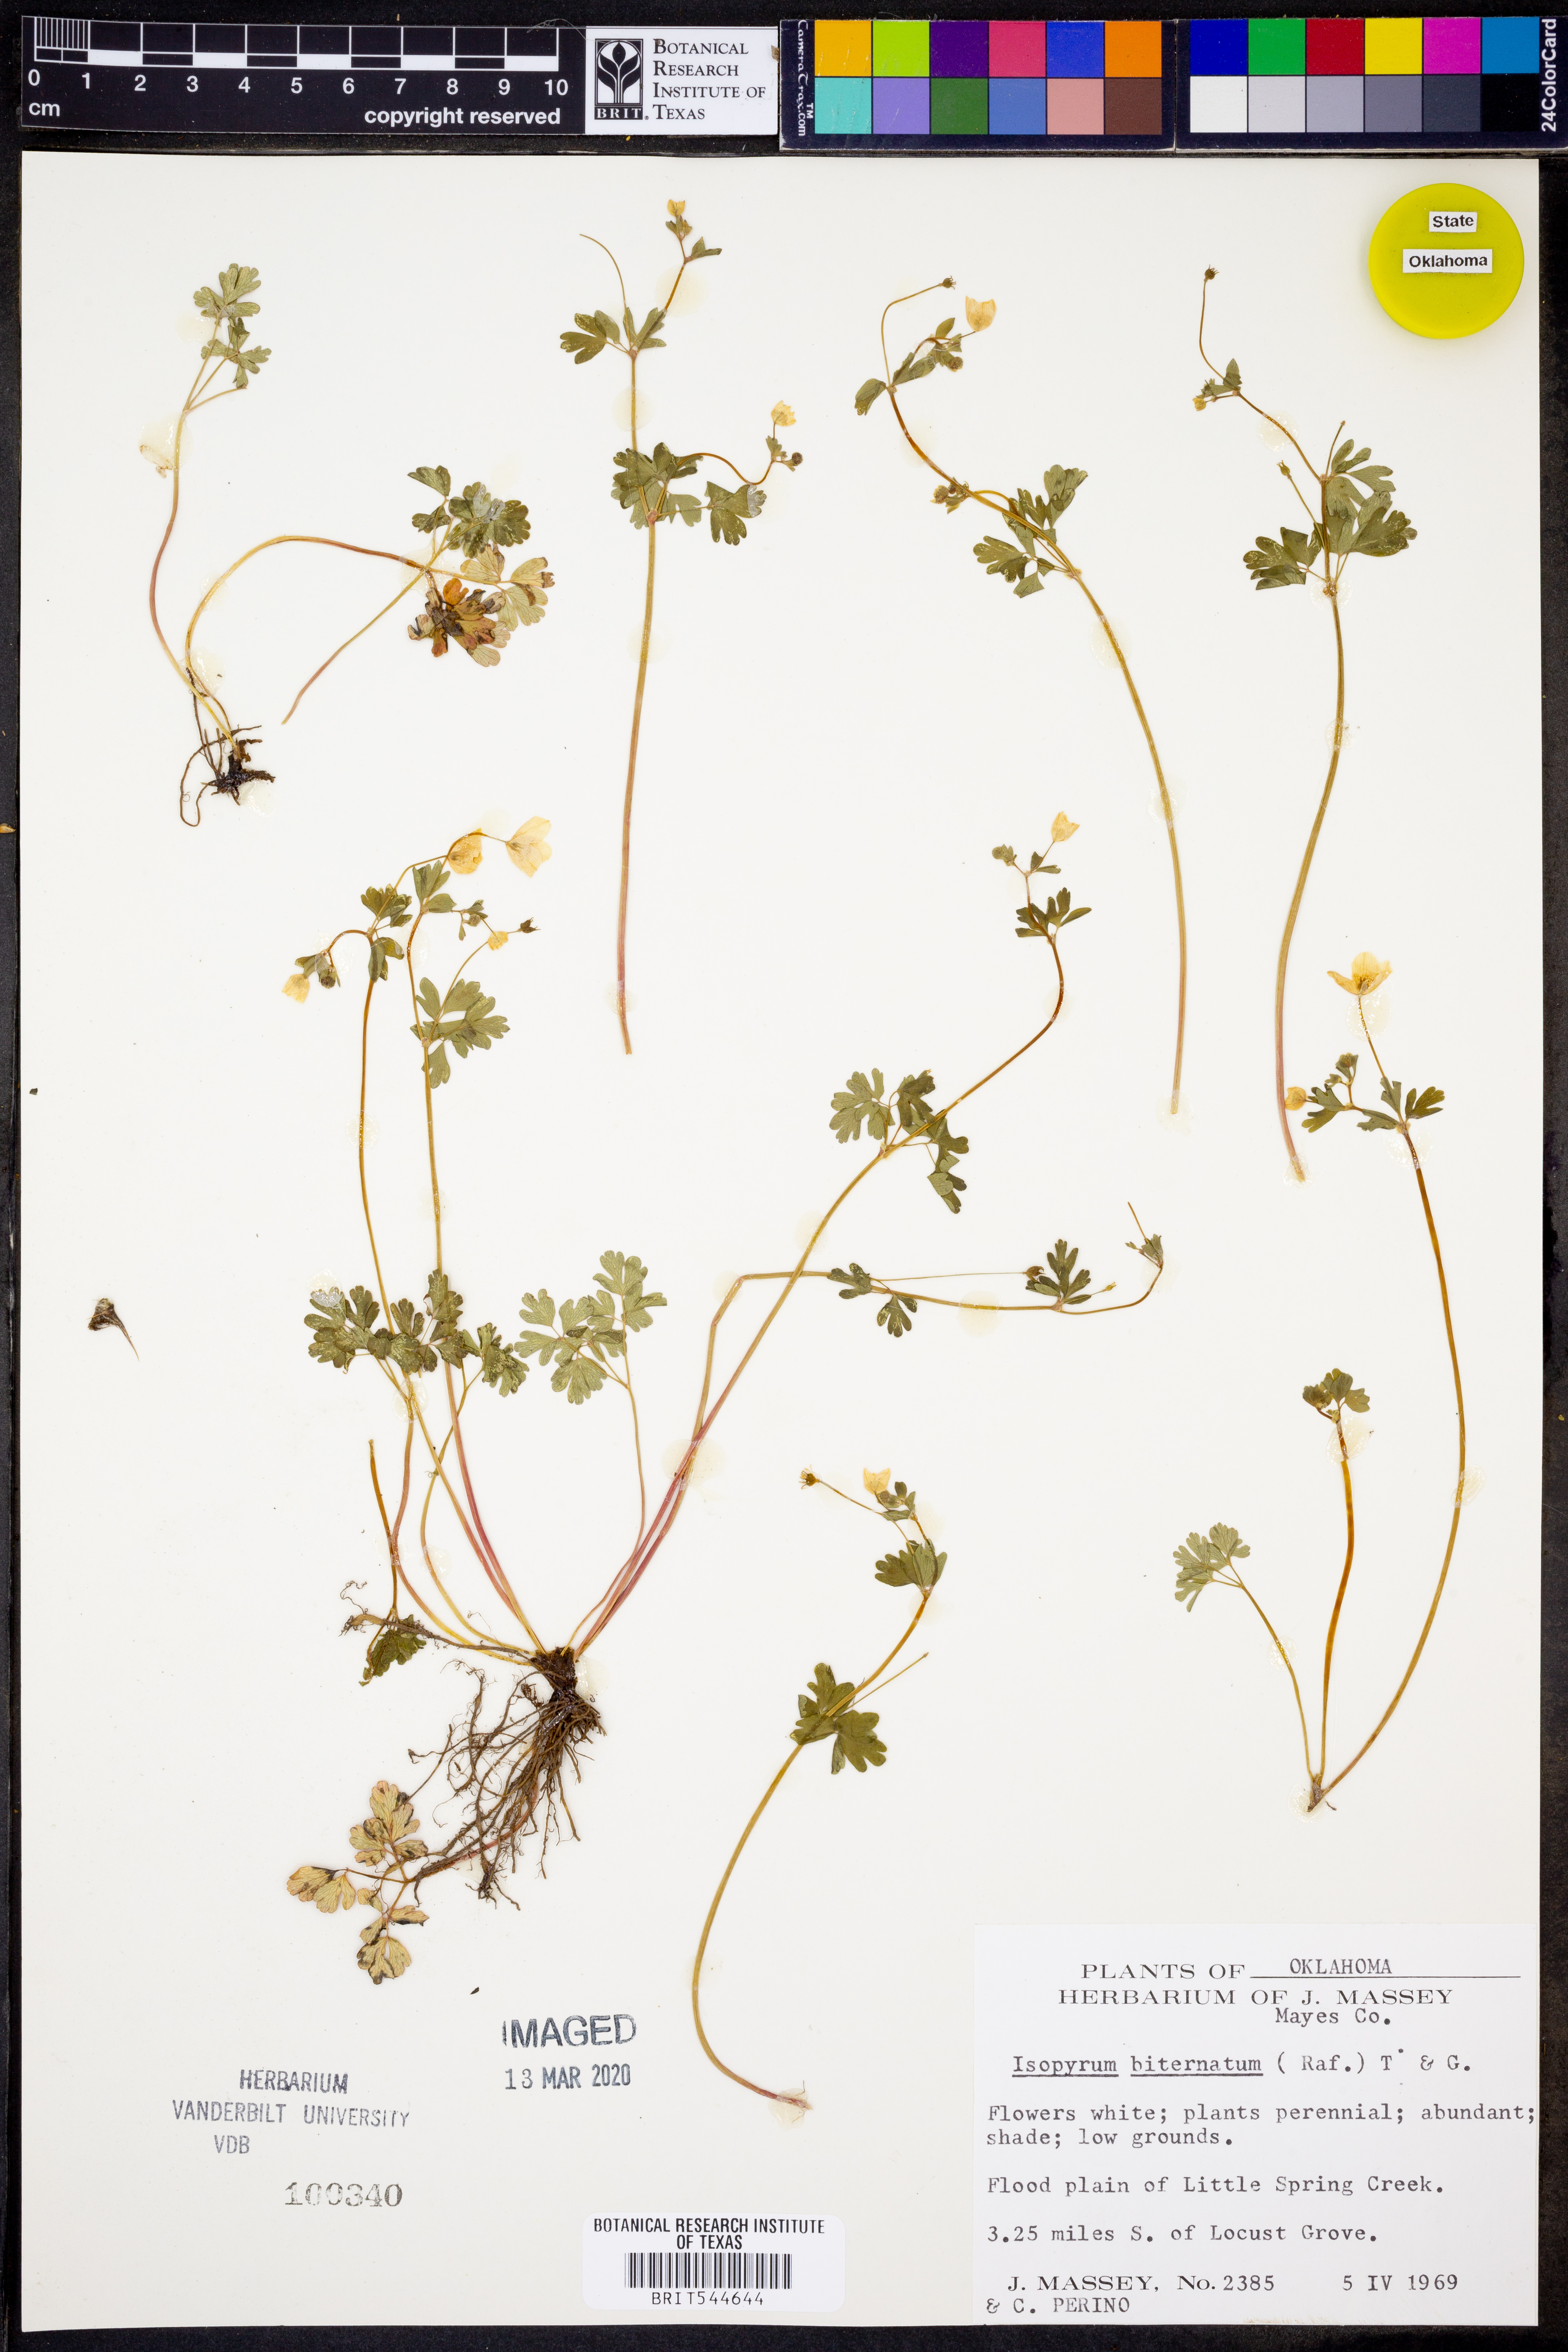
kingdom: Plantae
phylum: Tracheophyta
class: Magnoliopsida
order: Ranunculales
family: Ranunculaceae
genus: Enemion
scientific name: Enemion biternatum
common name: Eastern false rue-anemone
